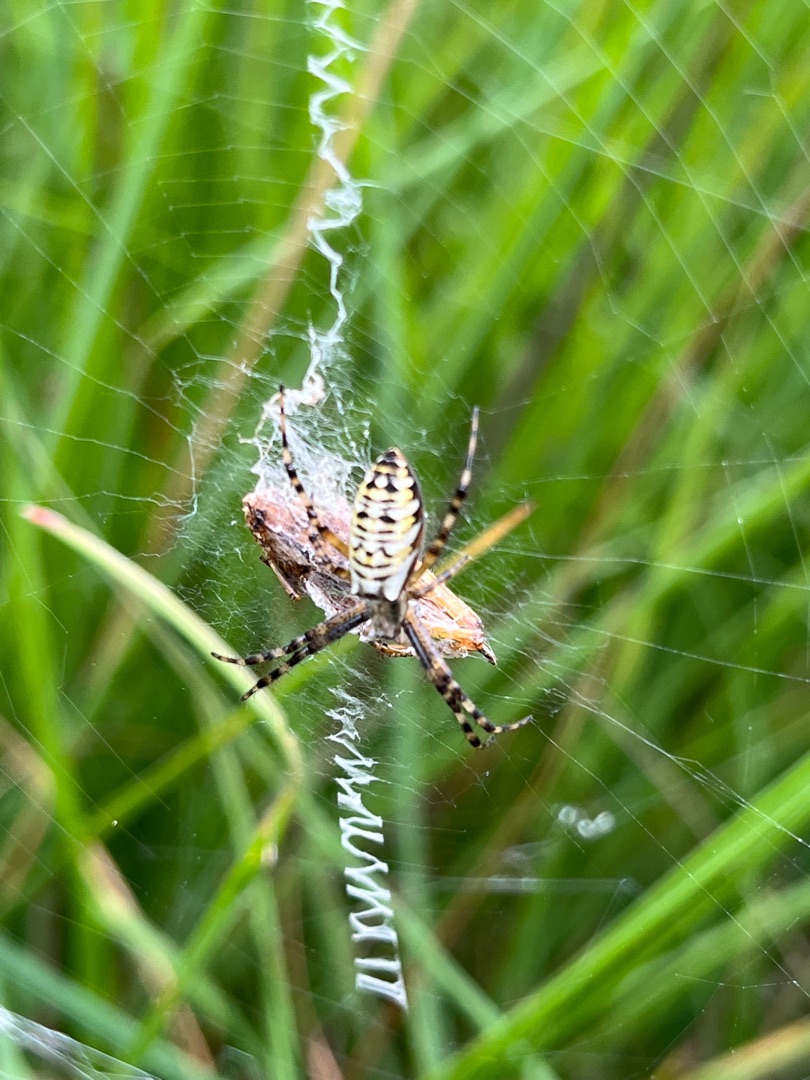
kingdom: Animalia
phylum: Arthropoda
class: Arachnida
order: Araneae
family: Araneidae
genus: Argiope
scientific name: Argiope bruennichi
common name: Hvepseedderkop
